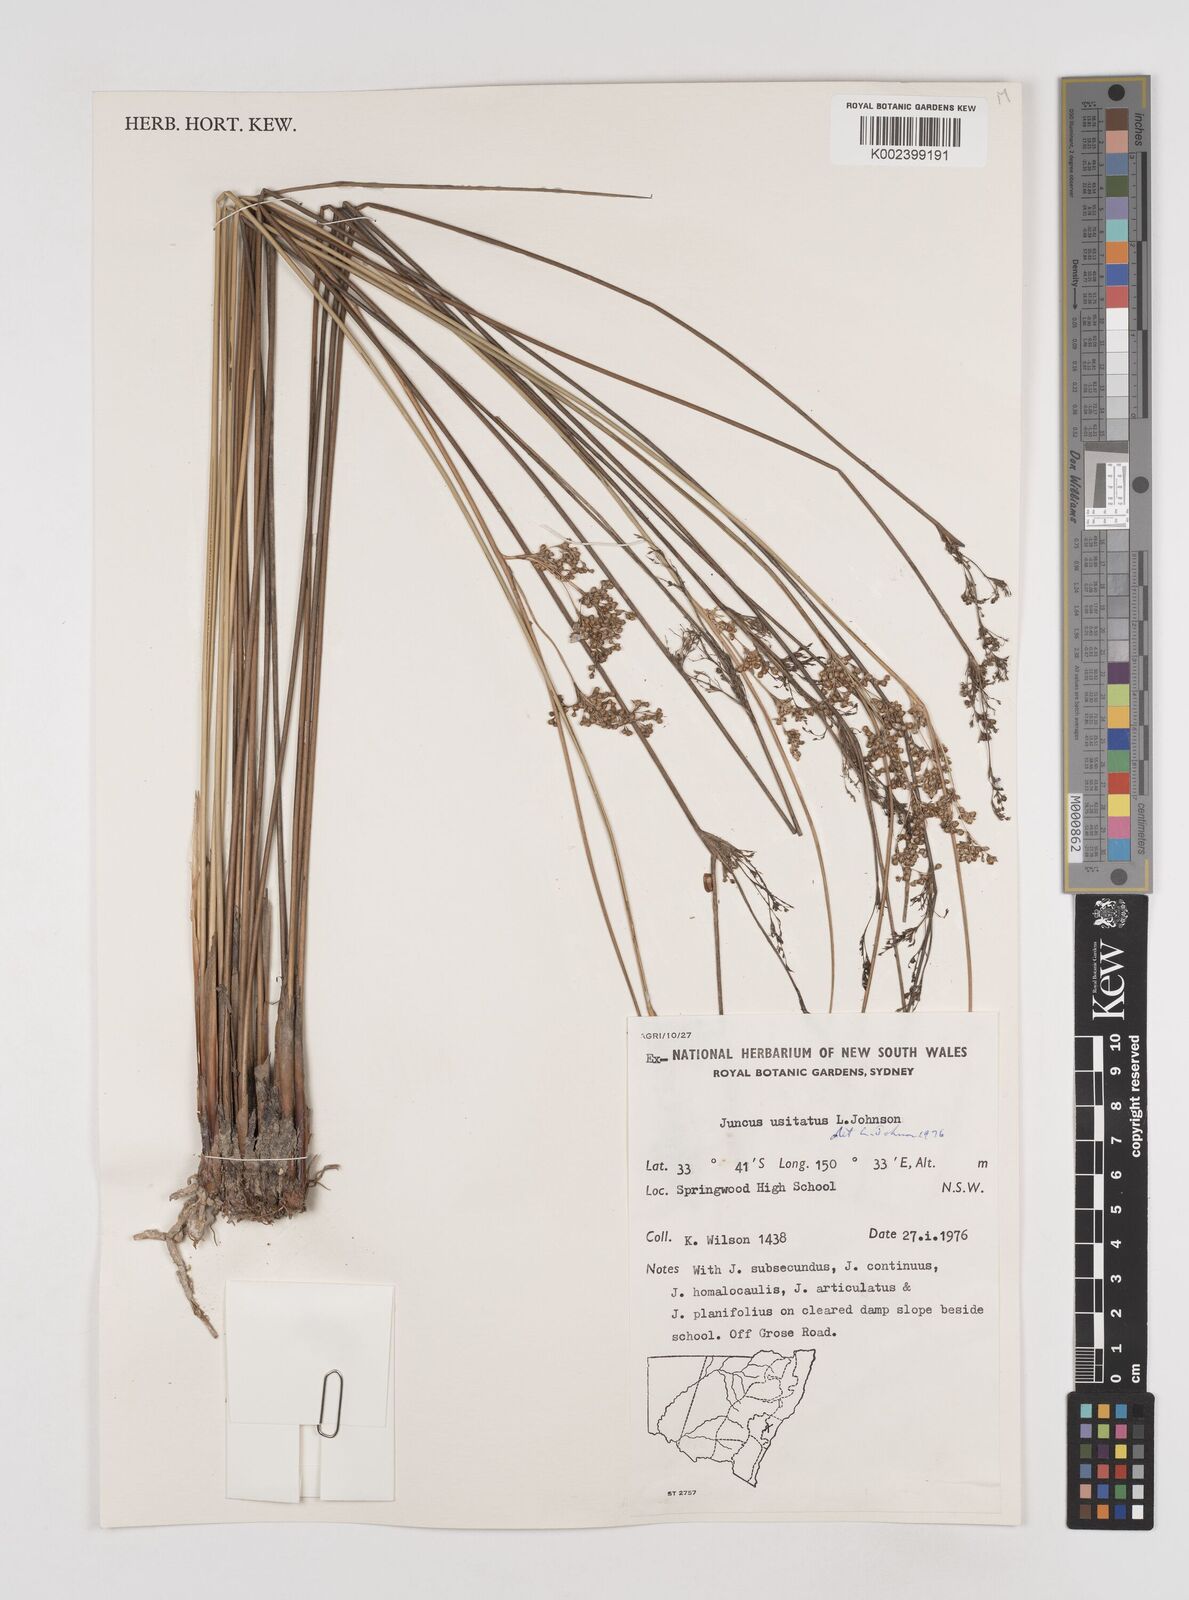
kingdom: Plantae
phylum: Tracheophyta
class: Liliopsida
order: Poales
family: Juncaceae
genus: Juncus
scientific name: Juncus usitatus
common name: Rush
